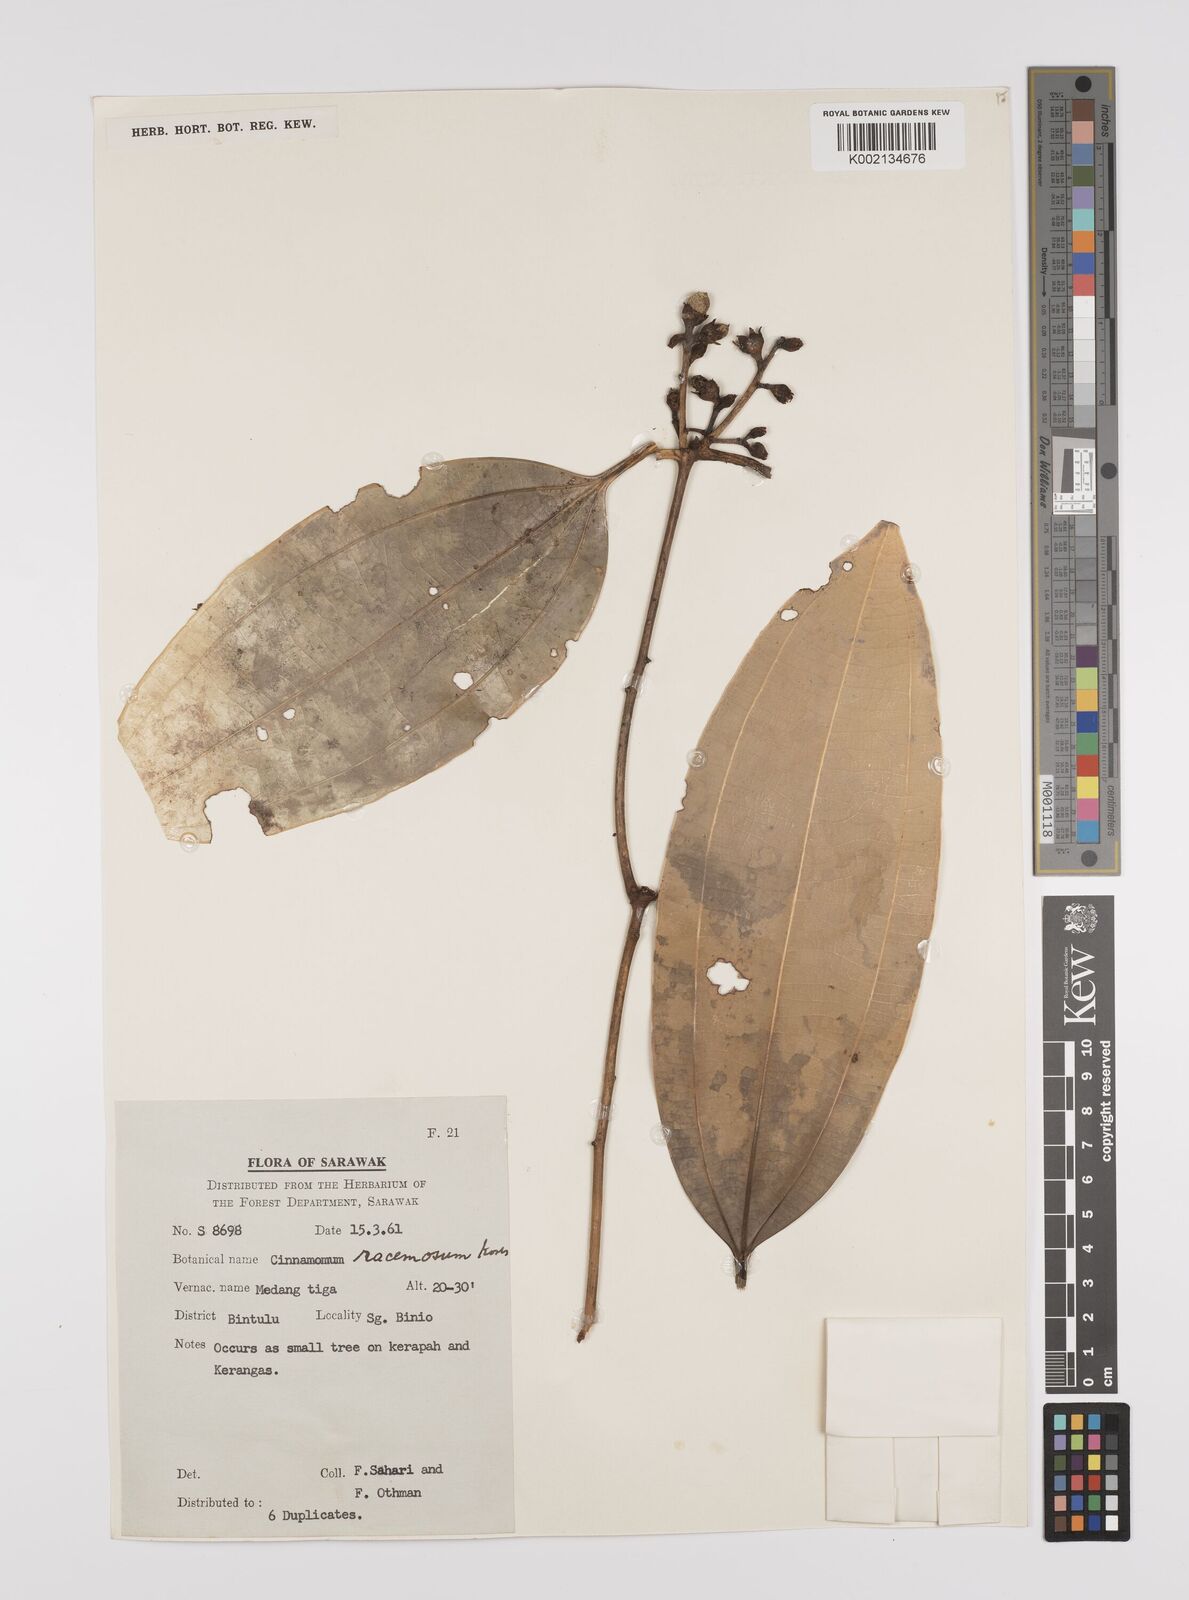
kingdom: Plantae
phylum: Tracheophyta
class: Magnoliopsida
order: Laurales
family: Lauraceae
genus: Cinnamomum
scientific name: Cinnamomum racemosum
